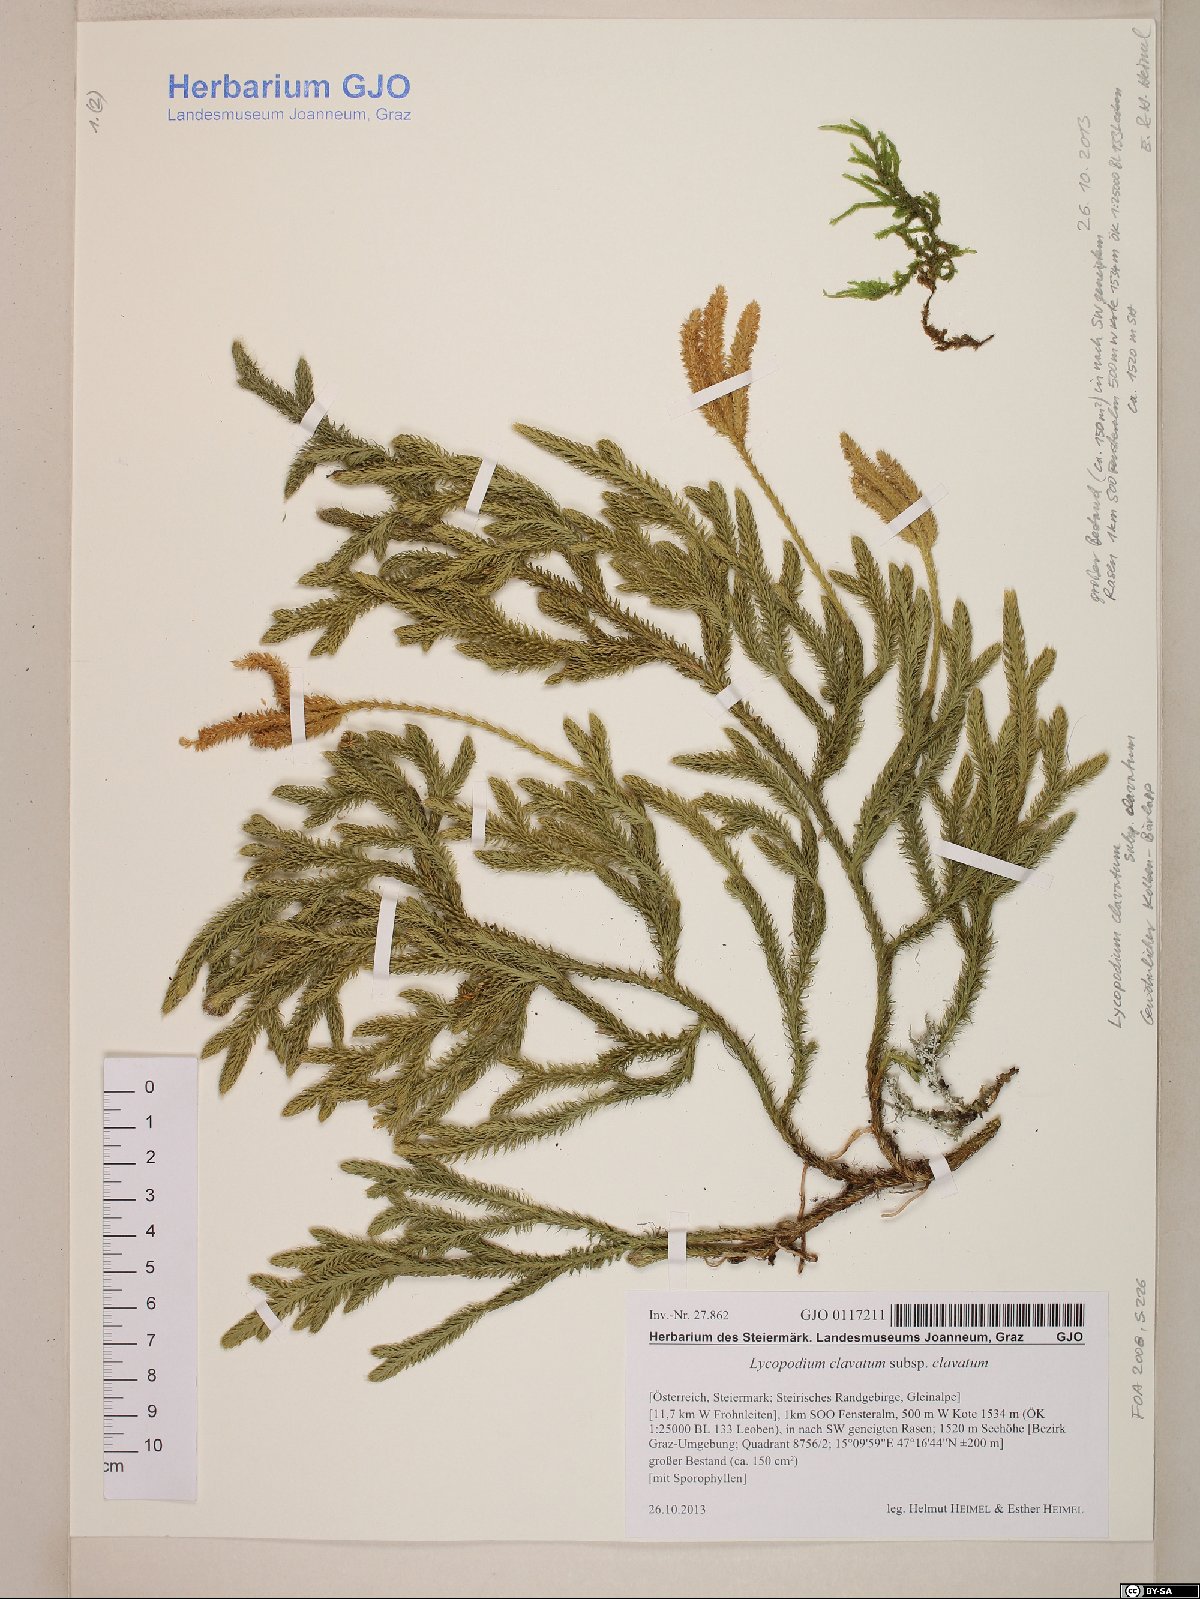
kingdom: Plantae
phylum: Tracheophyta
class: Lycopodiopsida
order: Lycopodiales
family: Lycopodiaceae
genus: Lycopodium
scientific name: Lycopodium clavatum
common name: Stag's-horn clubmoss
